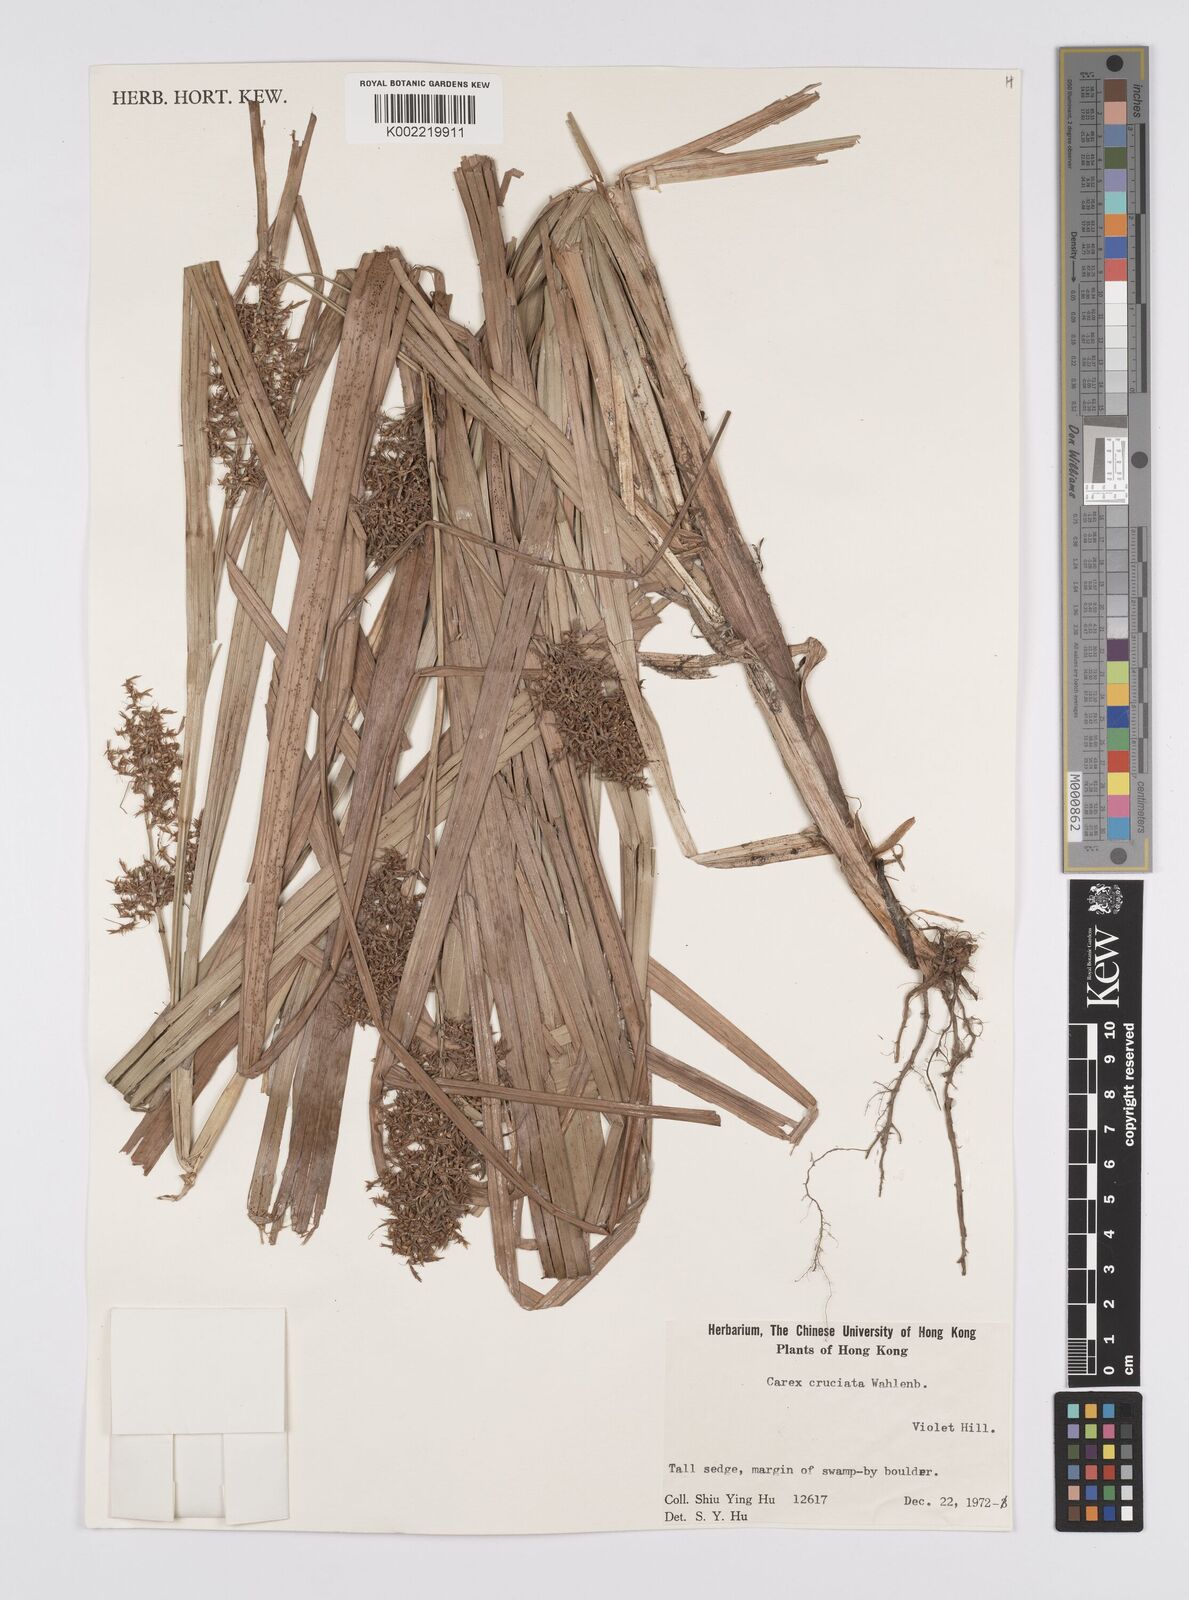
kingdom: Plantae
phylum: Tracheophyta
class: Liliopsida
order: Poales
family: Cyperaceae
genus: Carex
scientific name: Carex cruciata
